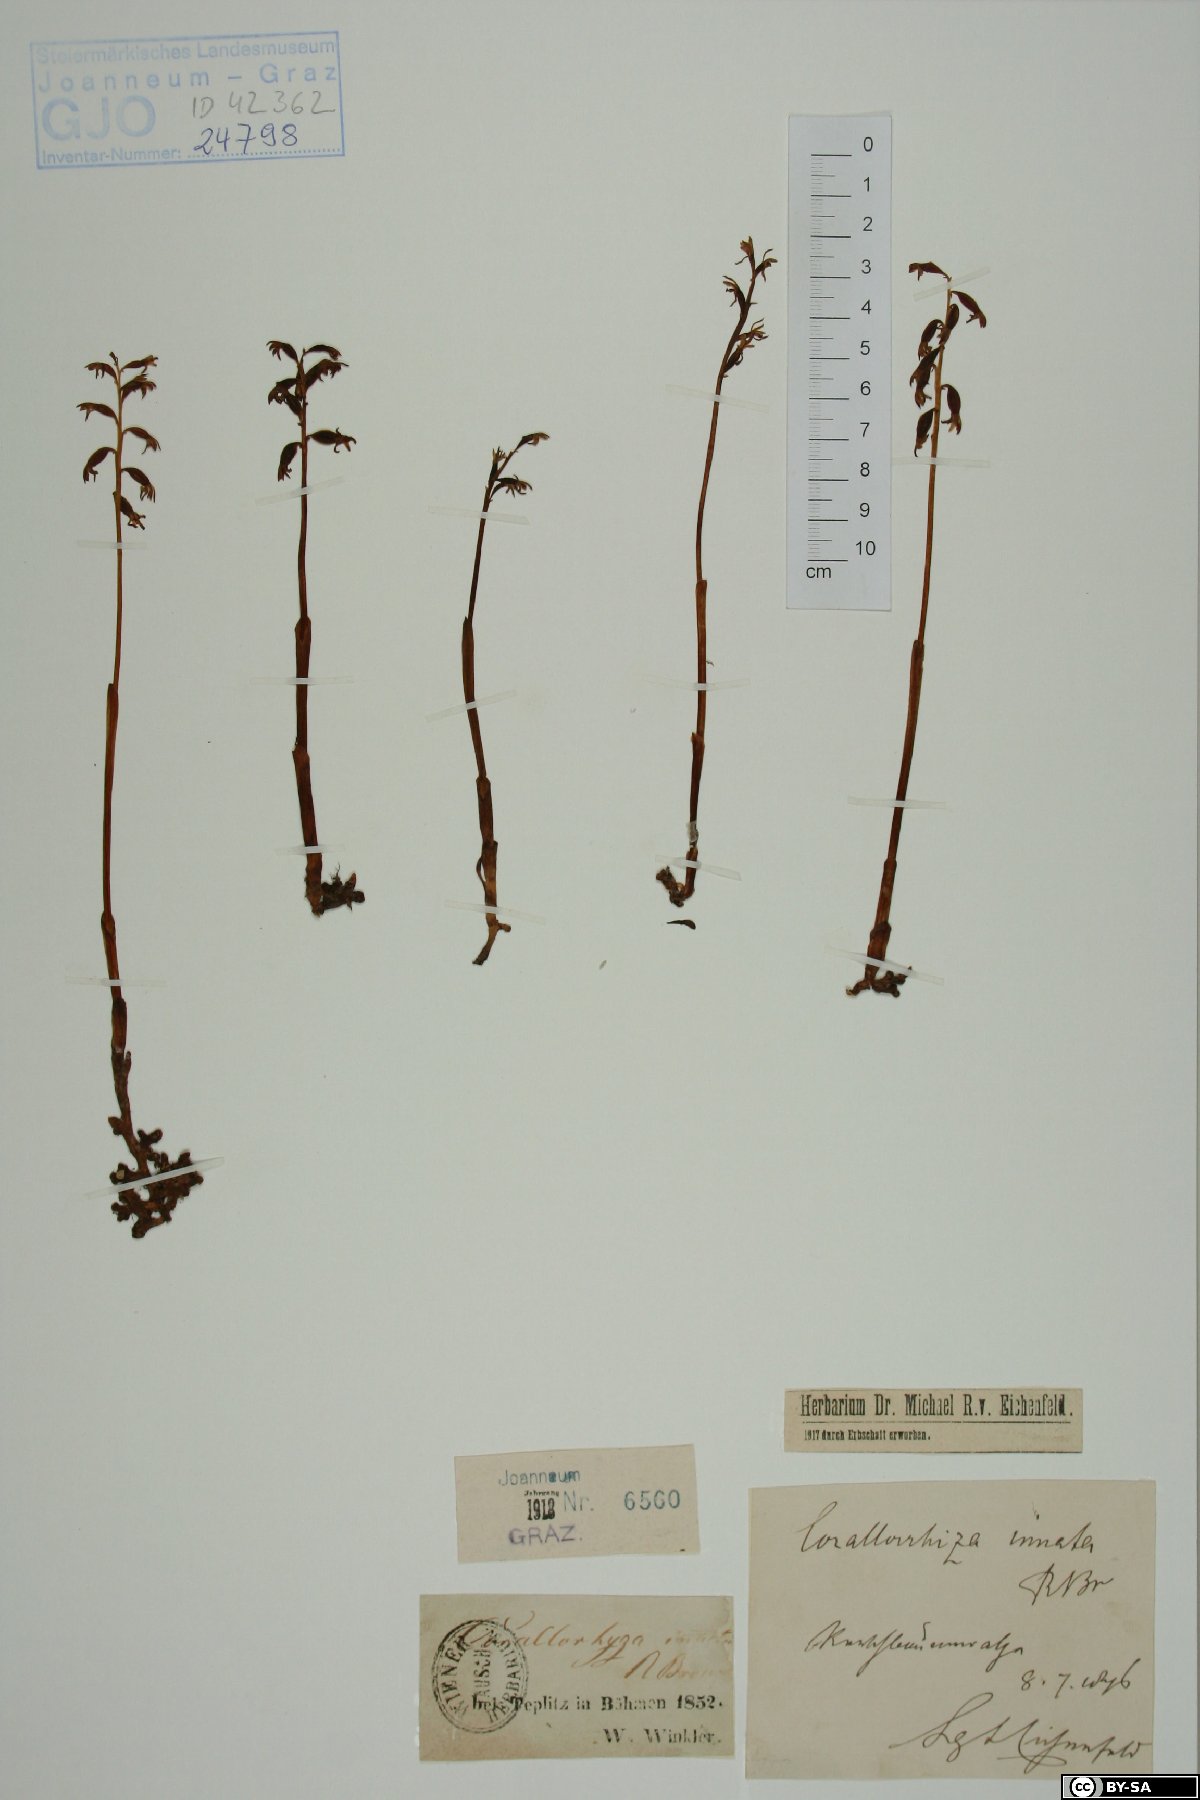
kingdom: Plantae
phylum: Tracheophyta
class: Liliopsida
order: Asparagales
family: Orchidaceae
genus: Corallorhiza
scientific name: Corallorhiza trifida
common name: Yellow coralroot
